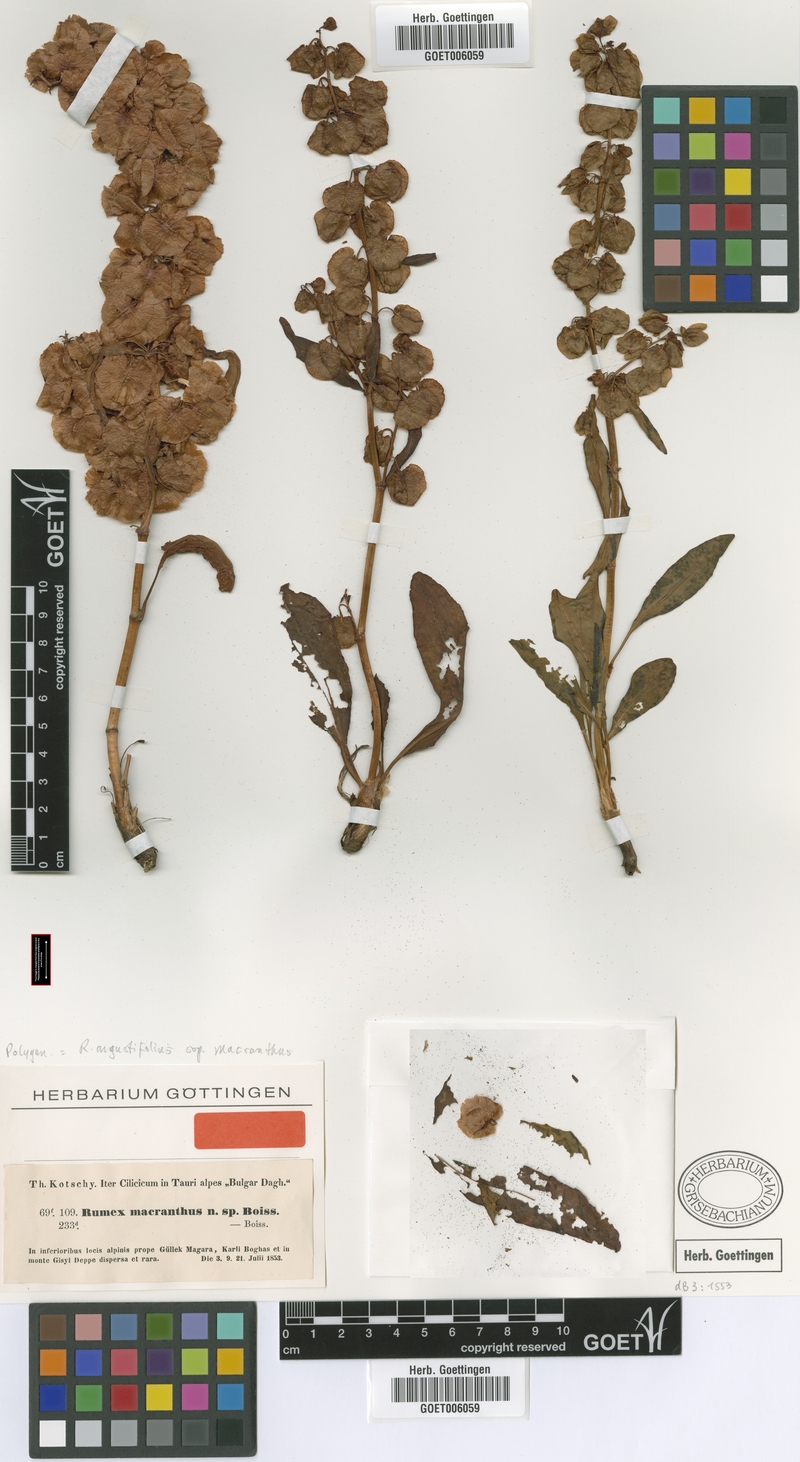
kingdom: Plantae
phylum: Tracheophyta
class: Magnoliopsida
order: Caryophyllales
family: Polygonaceae
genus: Rumex
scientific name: Rumex angustifolius
